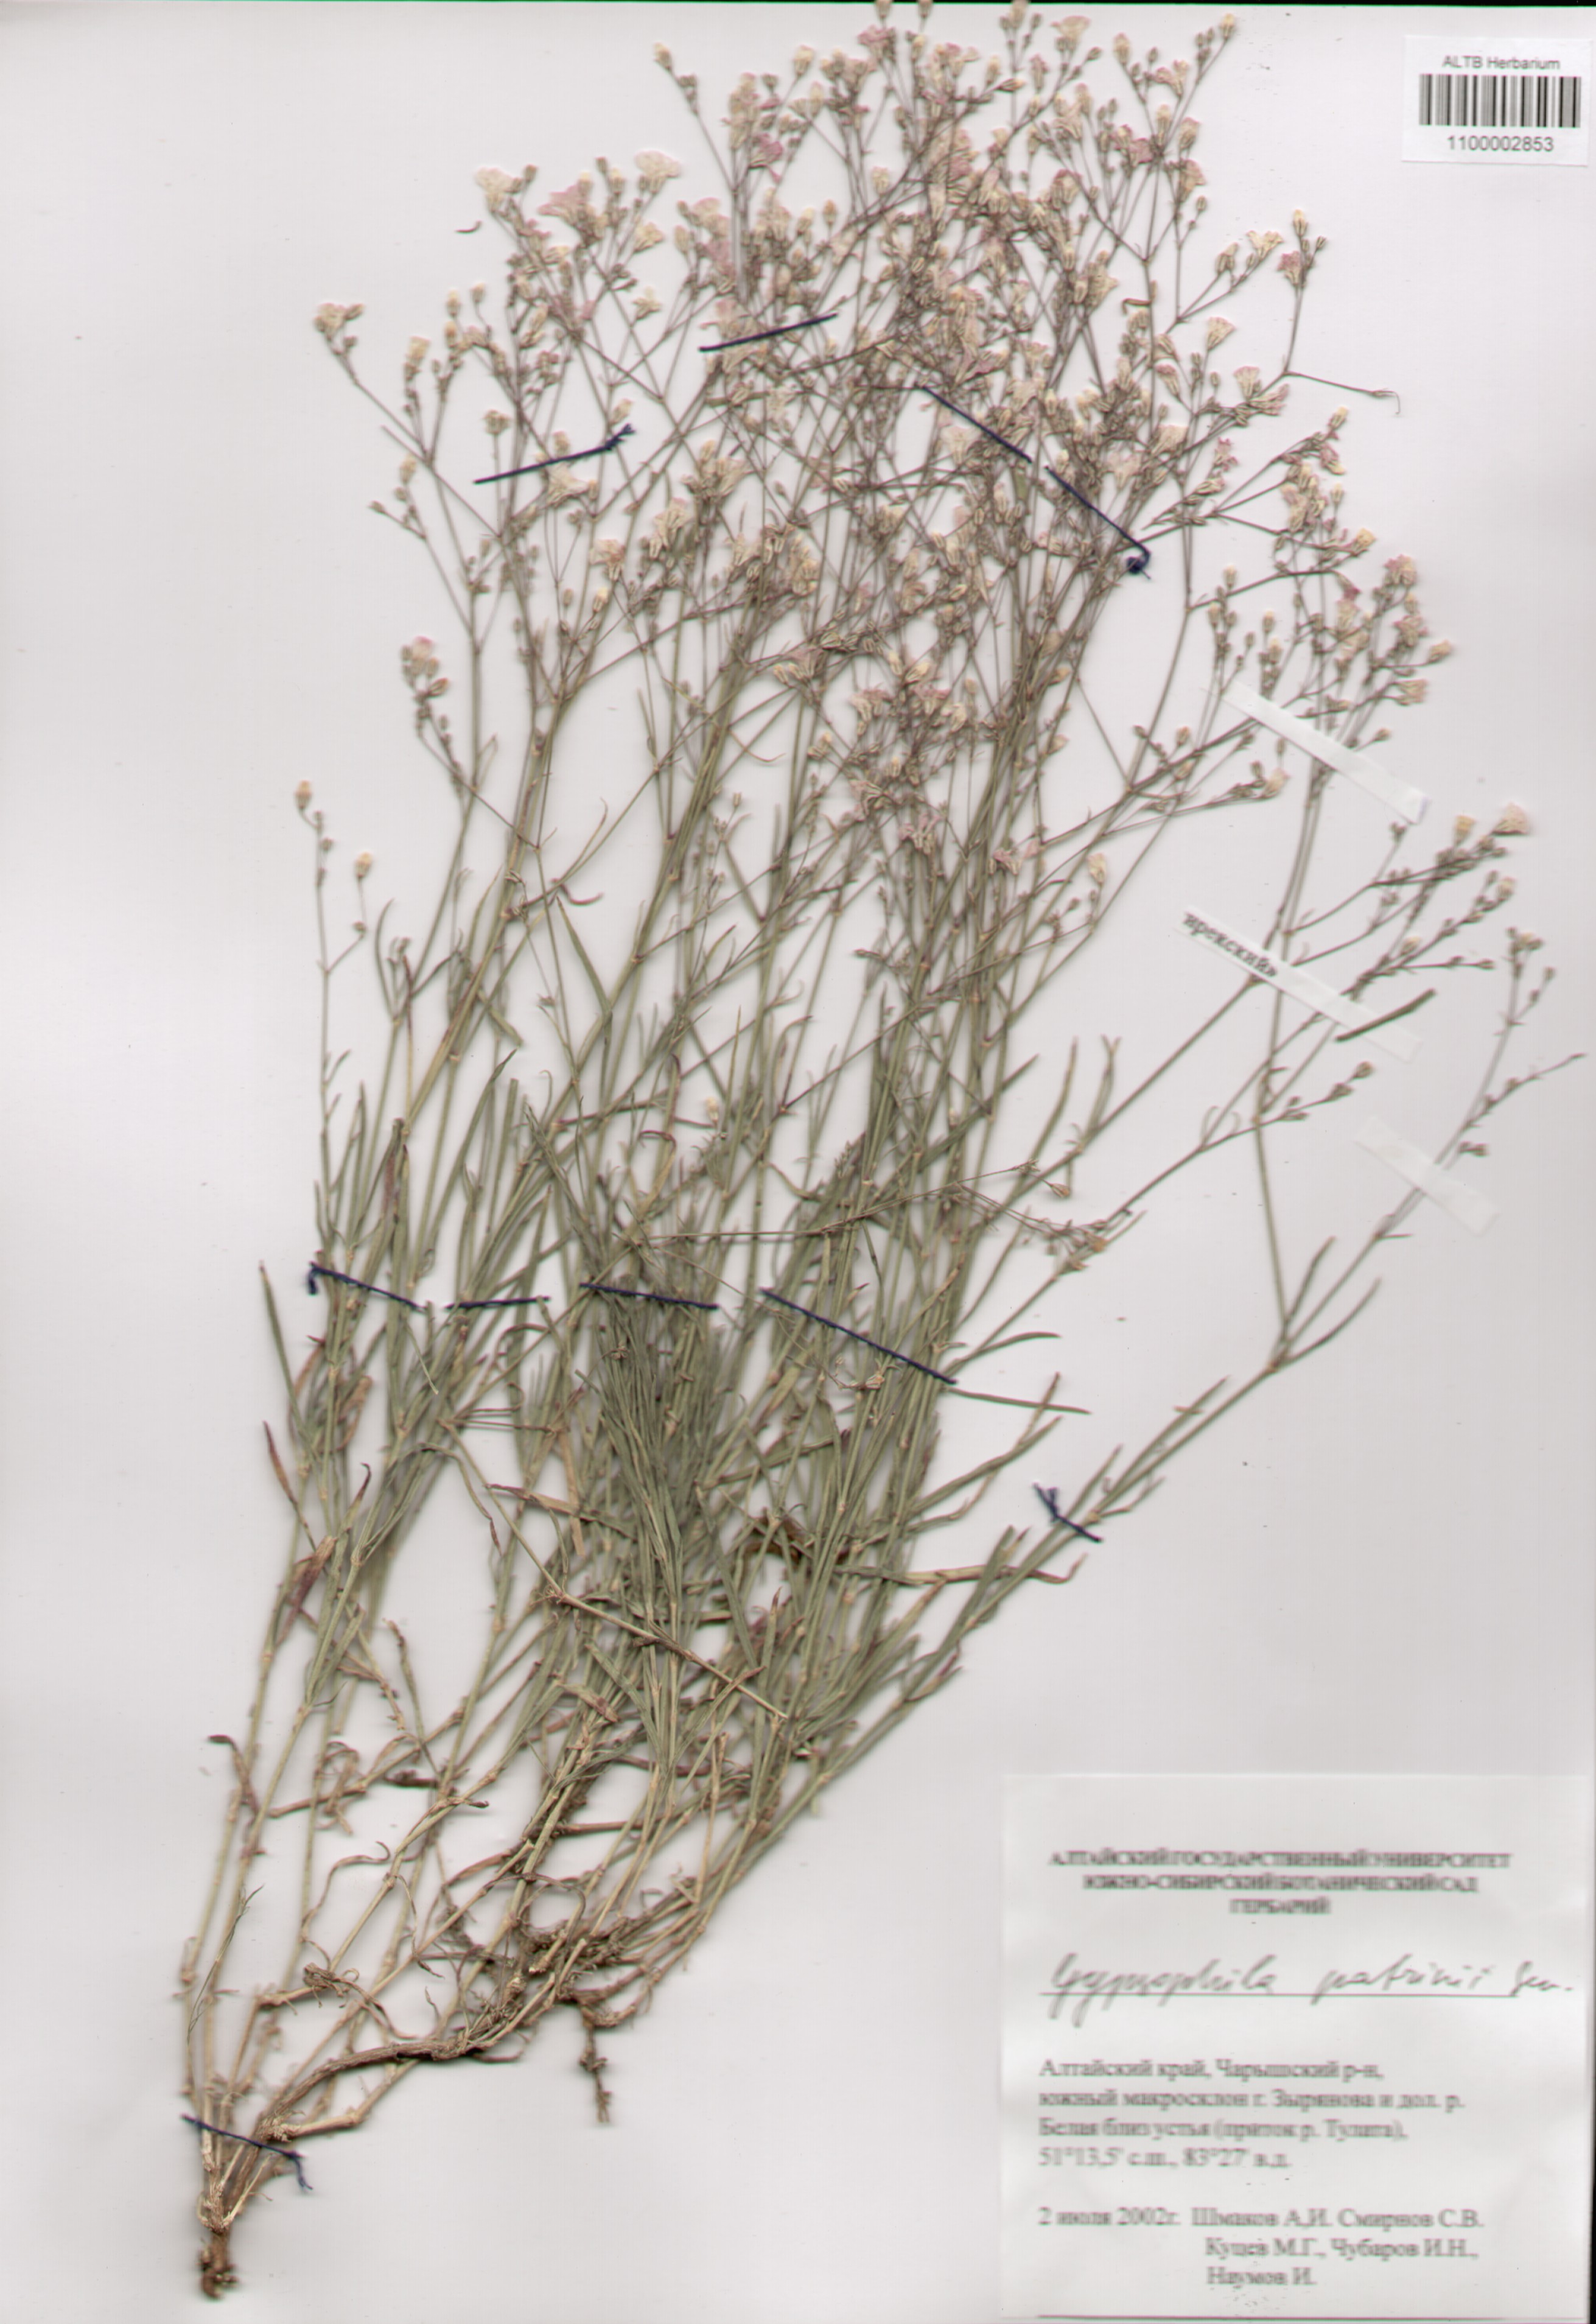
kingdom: Plantae
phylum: Tracheophyta
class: Magnoliopsida
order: Caryophyllales
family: Caryophyllaceae
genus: Gypsophila
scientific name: Gypsophila patrinii
